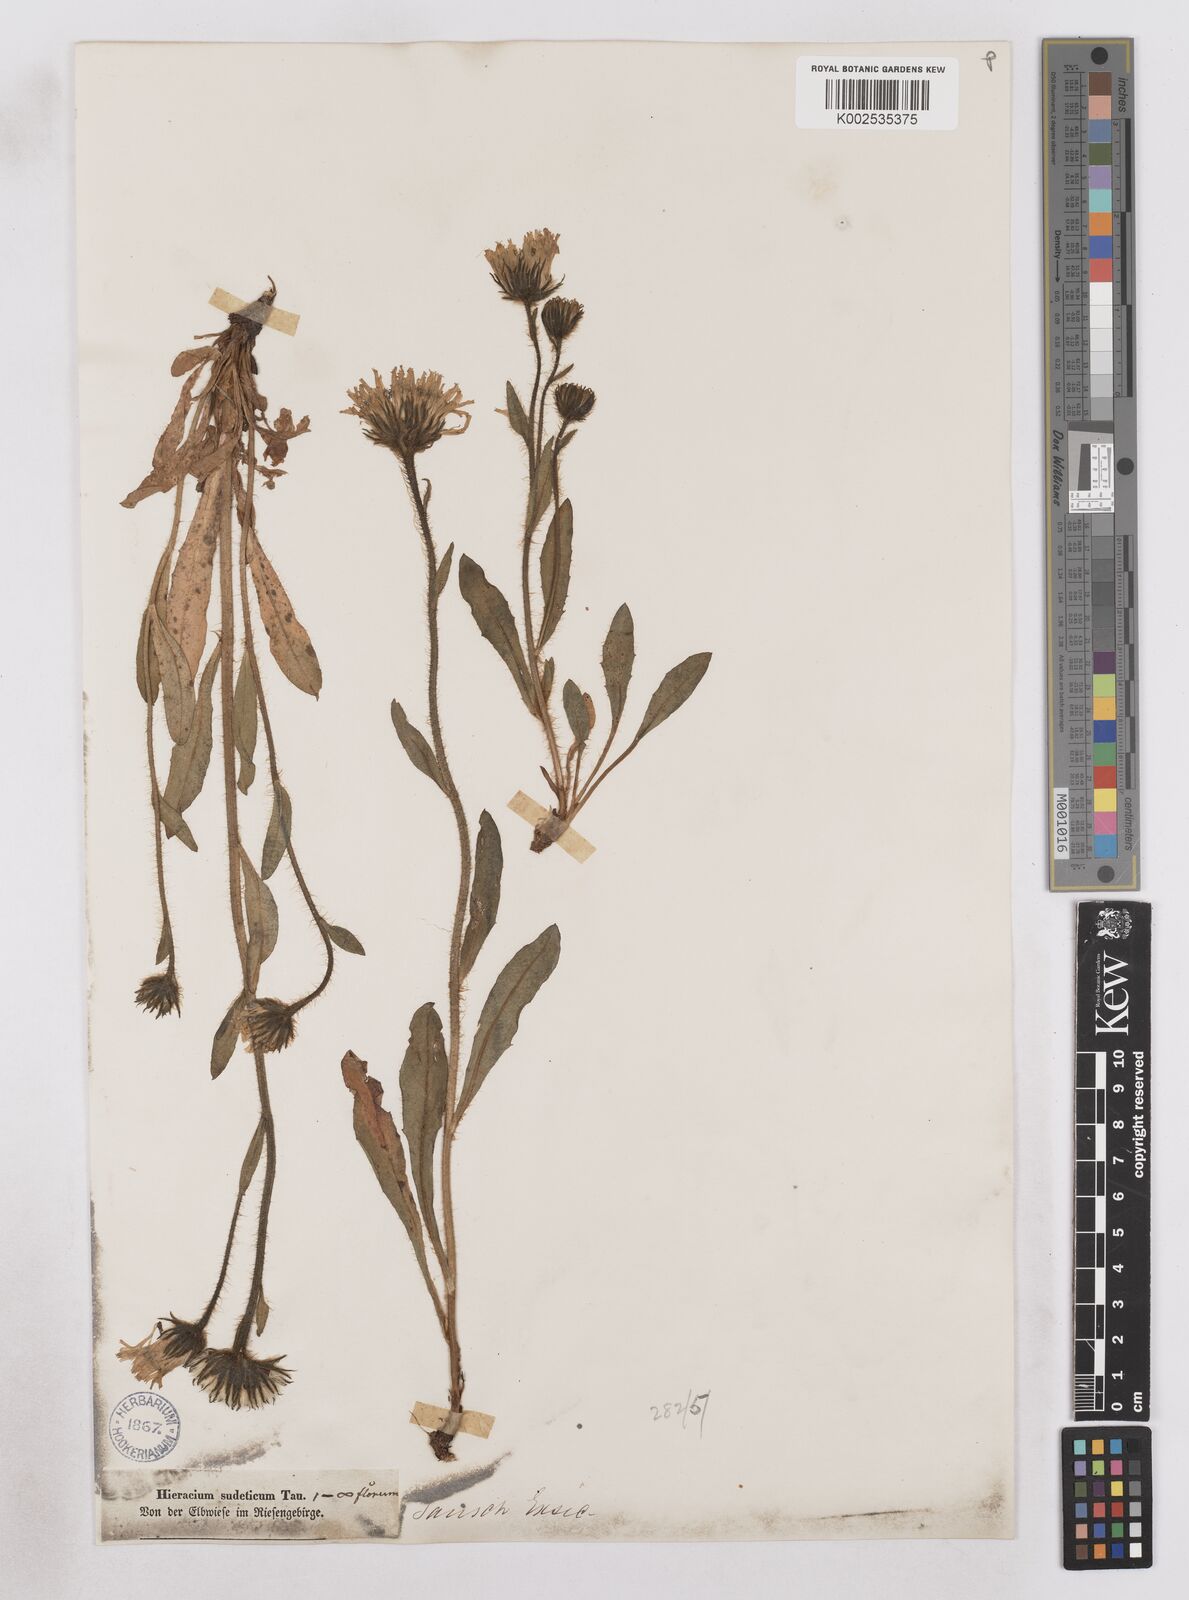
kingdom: Plantae
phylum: Tracheophyta
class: Magnoliopsida
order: Asterales
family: Asteraceae
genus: Hieracium
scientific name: Hieracium fritzei
